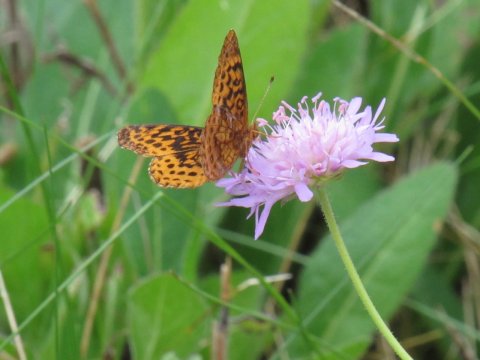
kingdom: Animalia
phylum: Arthropoda
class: Insecta
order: Lepidoptera
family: Nymphalidae
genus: Clossiana
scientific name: Clossiana toddi
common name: Meadow Fritillary
